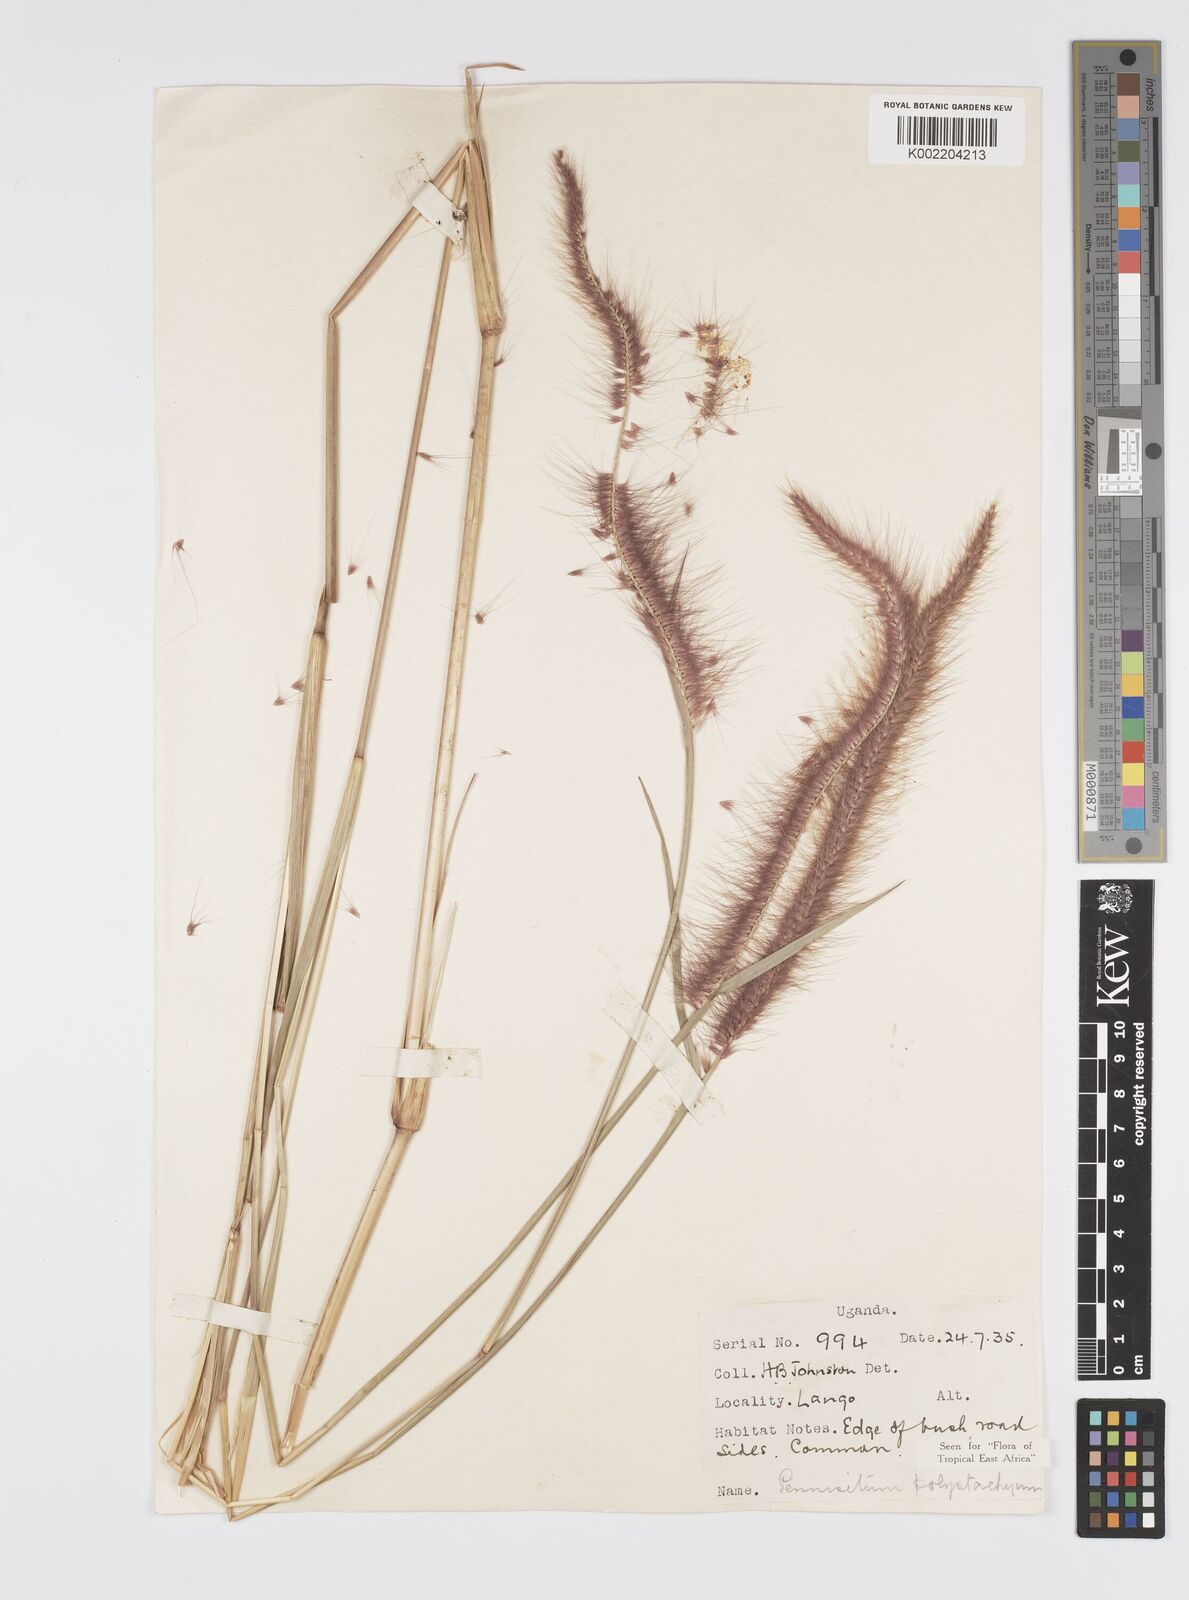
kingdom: Plantae
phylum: Tracheophyta
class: Liliopsida
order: Poales
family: Poaceae
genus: Setaria
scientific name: Setaria parviflora
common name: Knotroot bristle-grass
